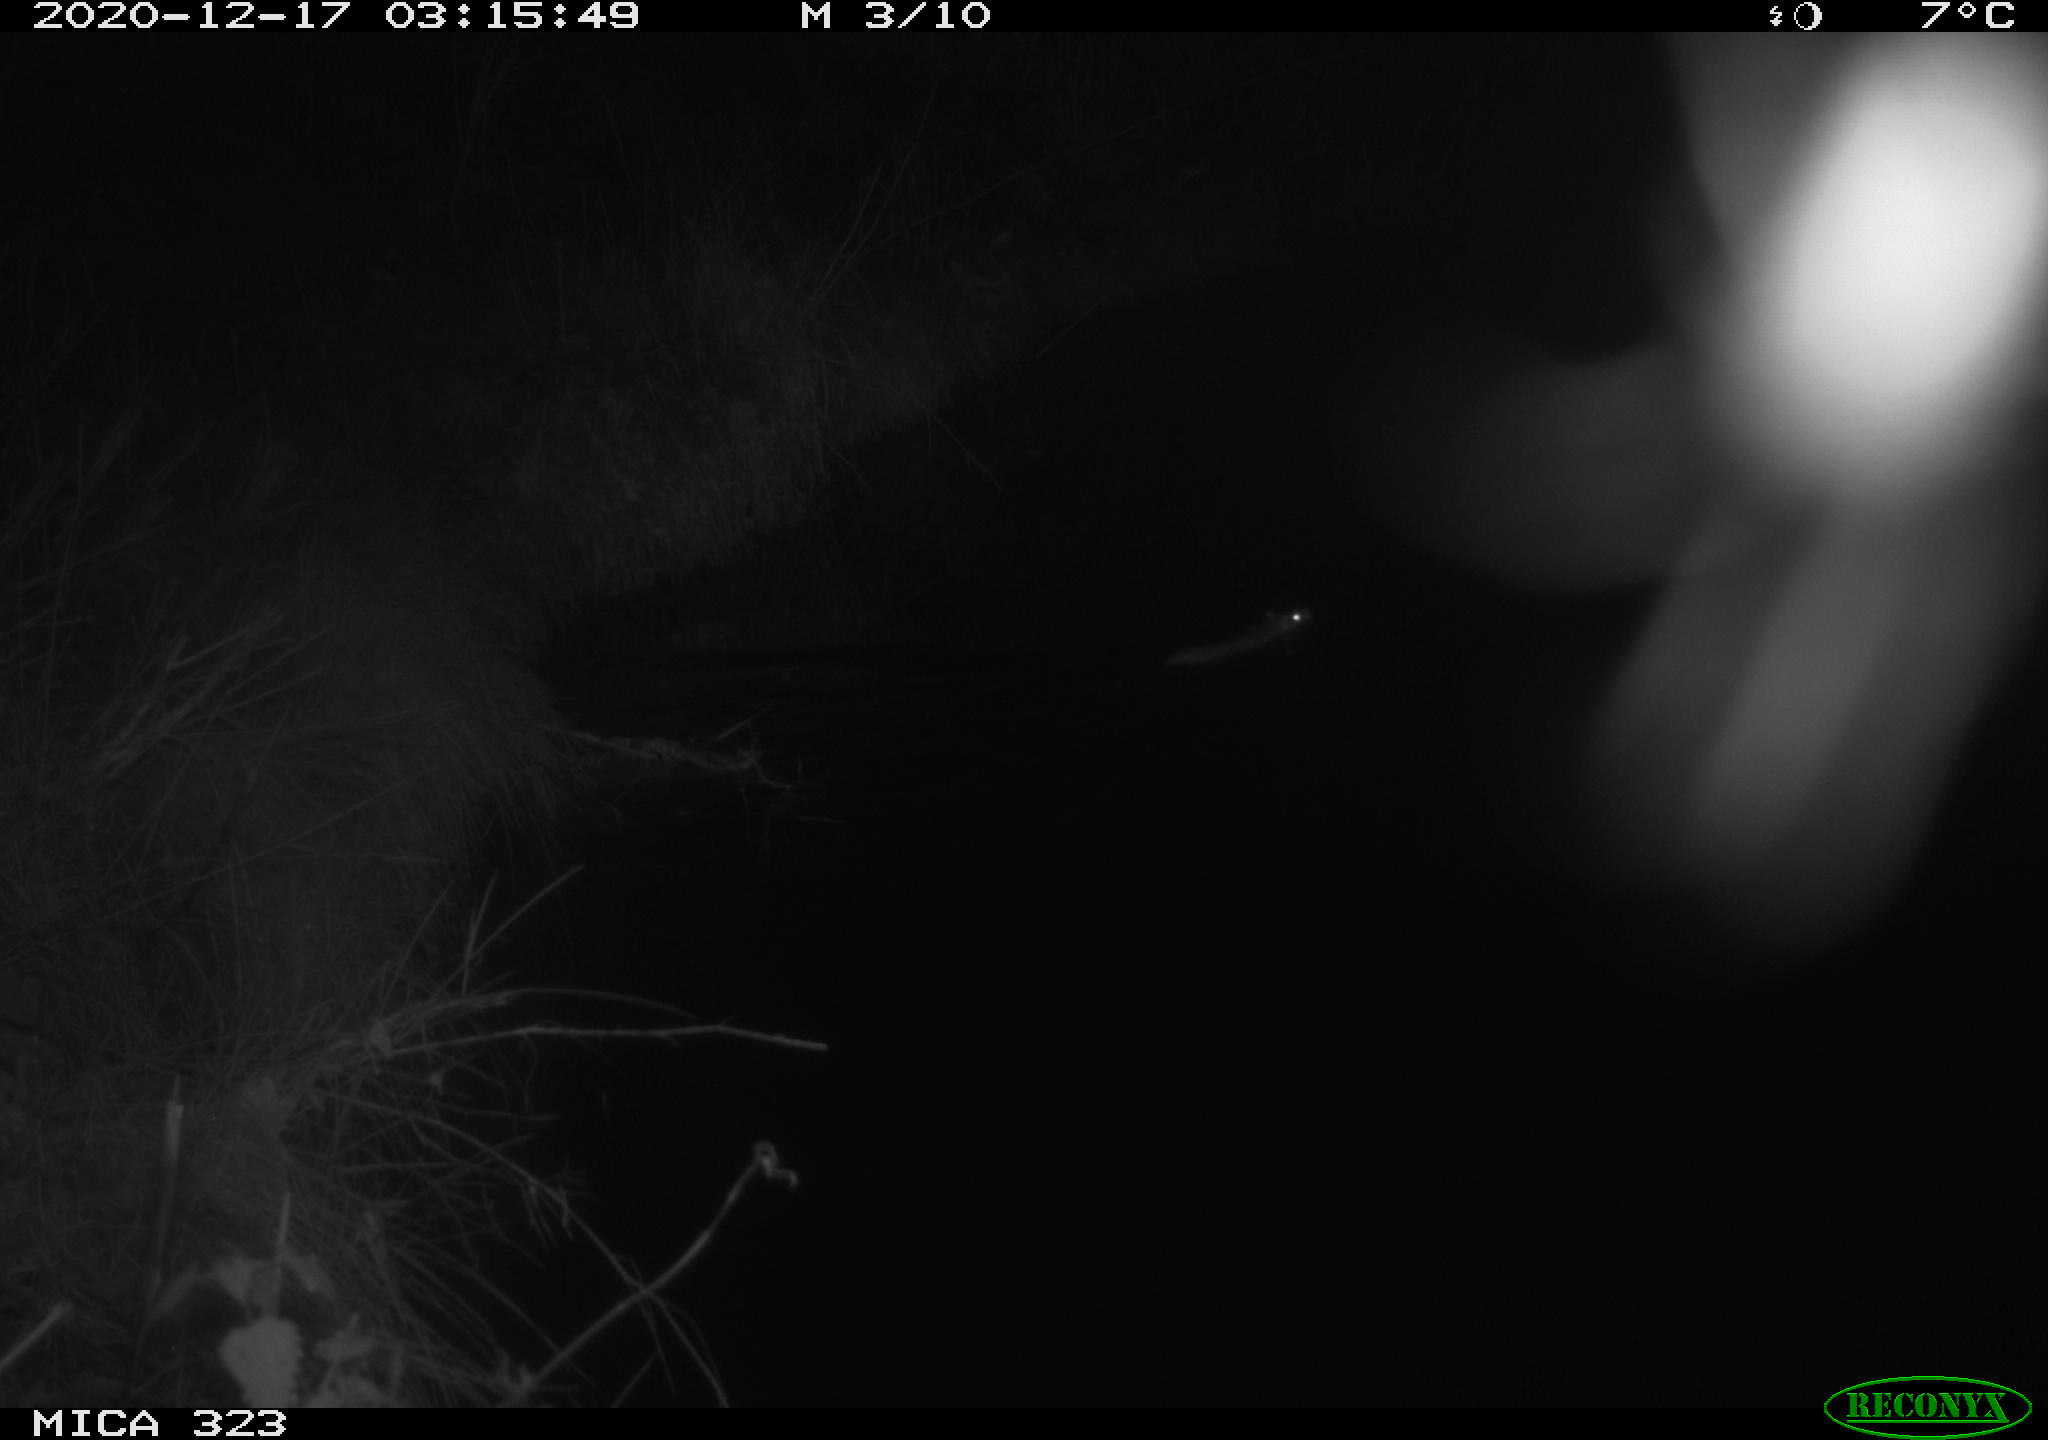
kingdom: Animalia
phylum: Chordata
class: Mammalia
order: Rodentia
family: Muridae
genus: Rattus
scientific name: Rattus norvegicus
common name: Brown rat
